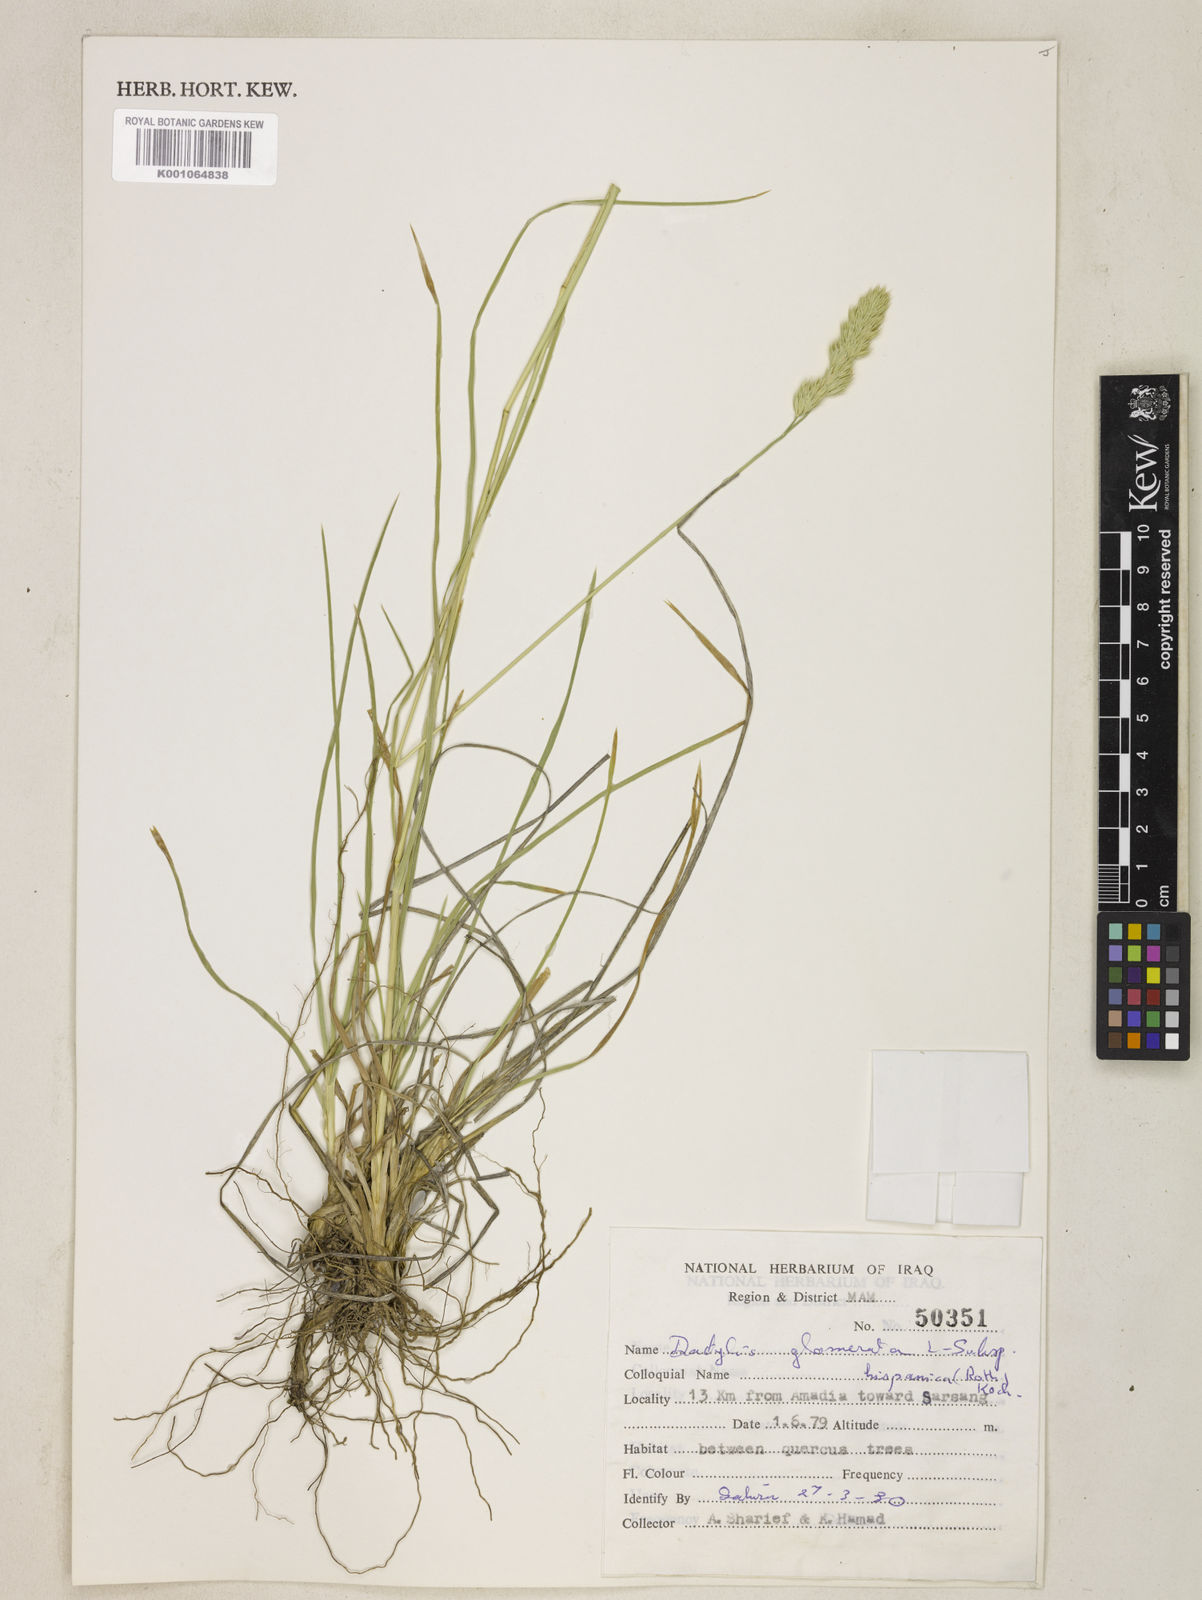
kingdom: Plantae
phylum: Tracheophyta
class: Liliopsida
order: Poales
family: Poaceae
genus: Dactylis
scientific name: Dactylis glomerata
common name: Orchardgrass
